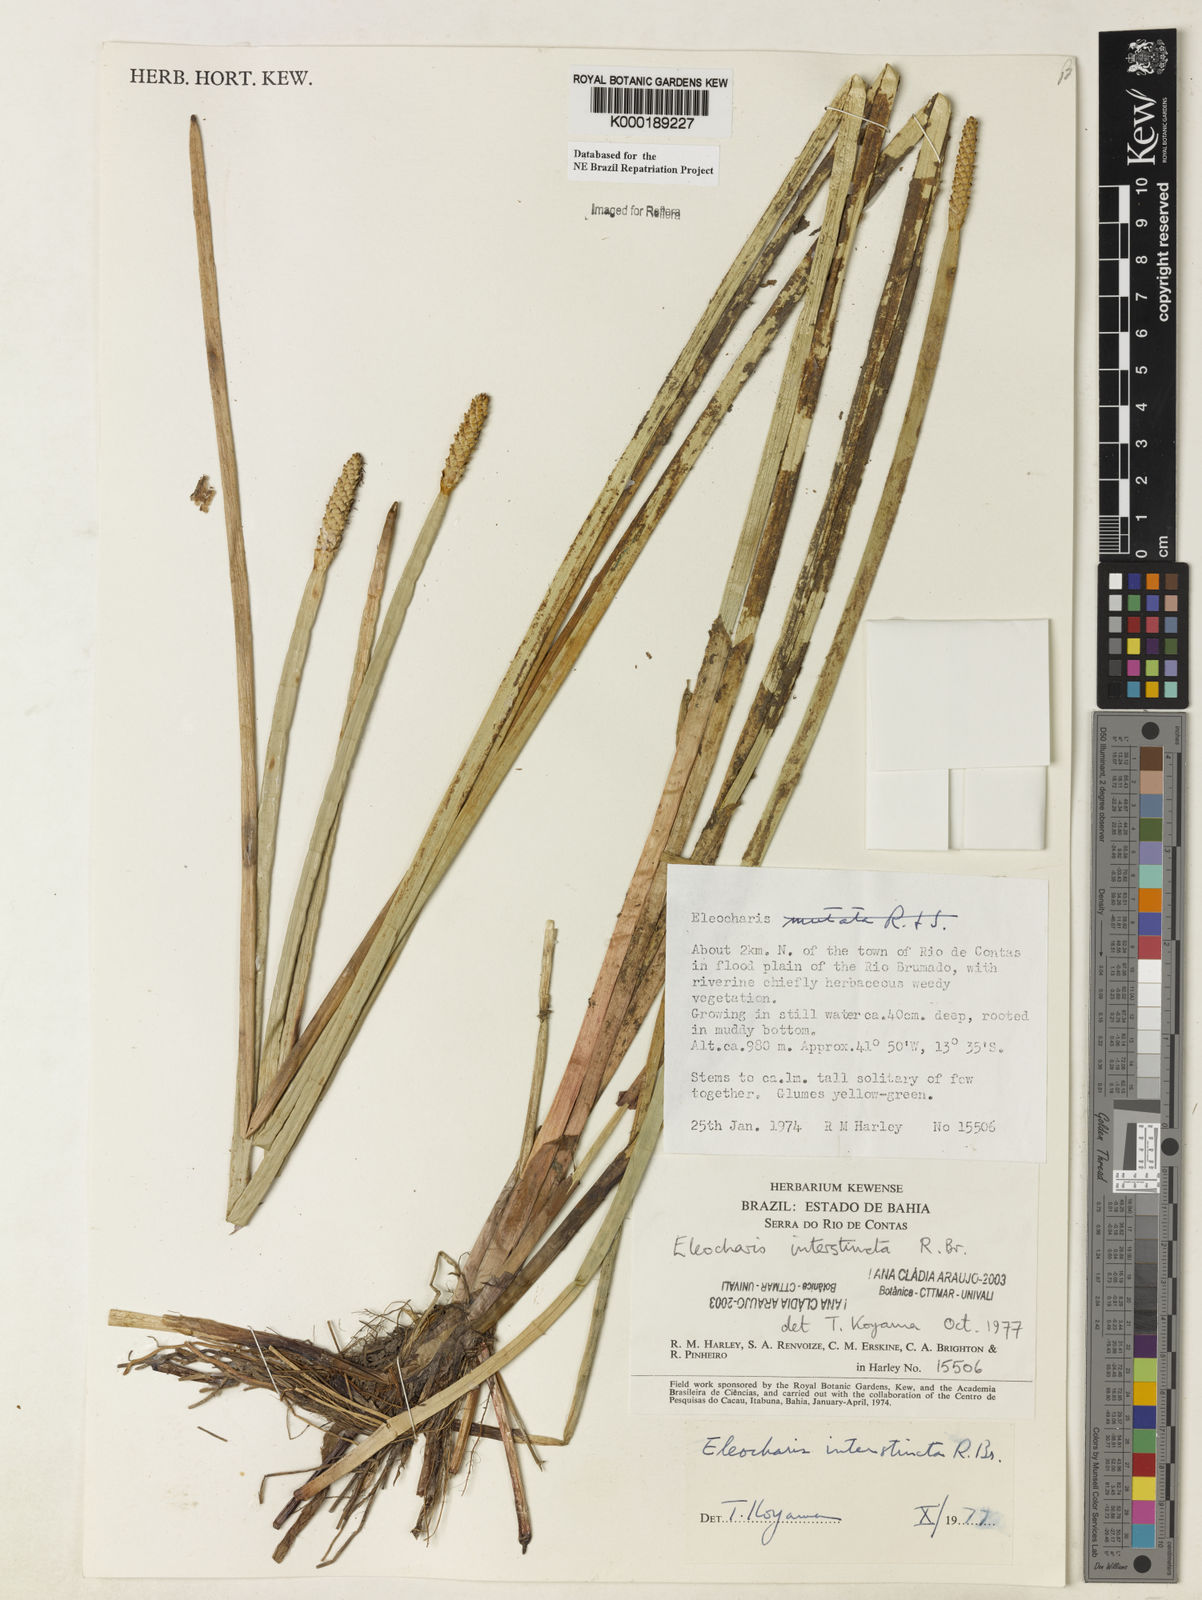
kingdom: Plantae
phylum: Tracheophyta
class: Liliopsida
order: Poales
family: Cyperaceae
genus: Eleocharis
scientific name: Eleocharis interstincta
